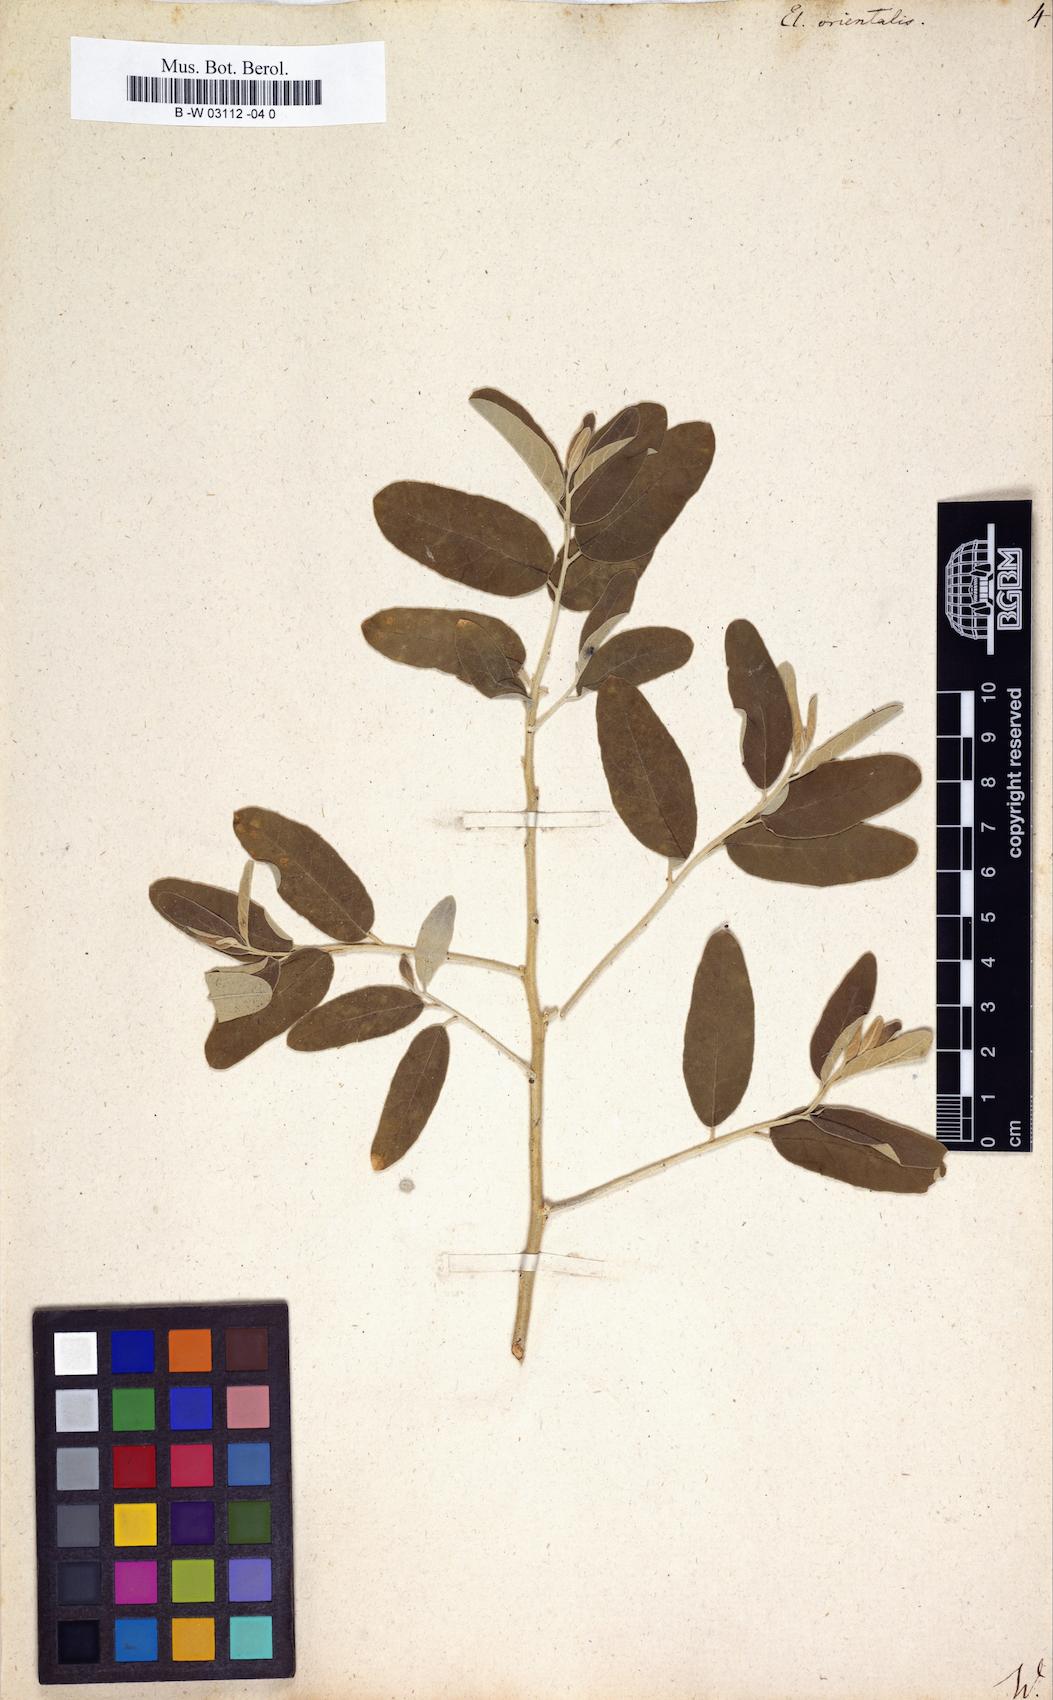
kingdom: Plantae
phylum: Tracheophyta
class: Magnoliopsida
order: Rosales
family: Elaeagnaceae
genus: Elaeagnus
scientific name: Elaeagnus angustifolia
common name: Russian olive
